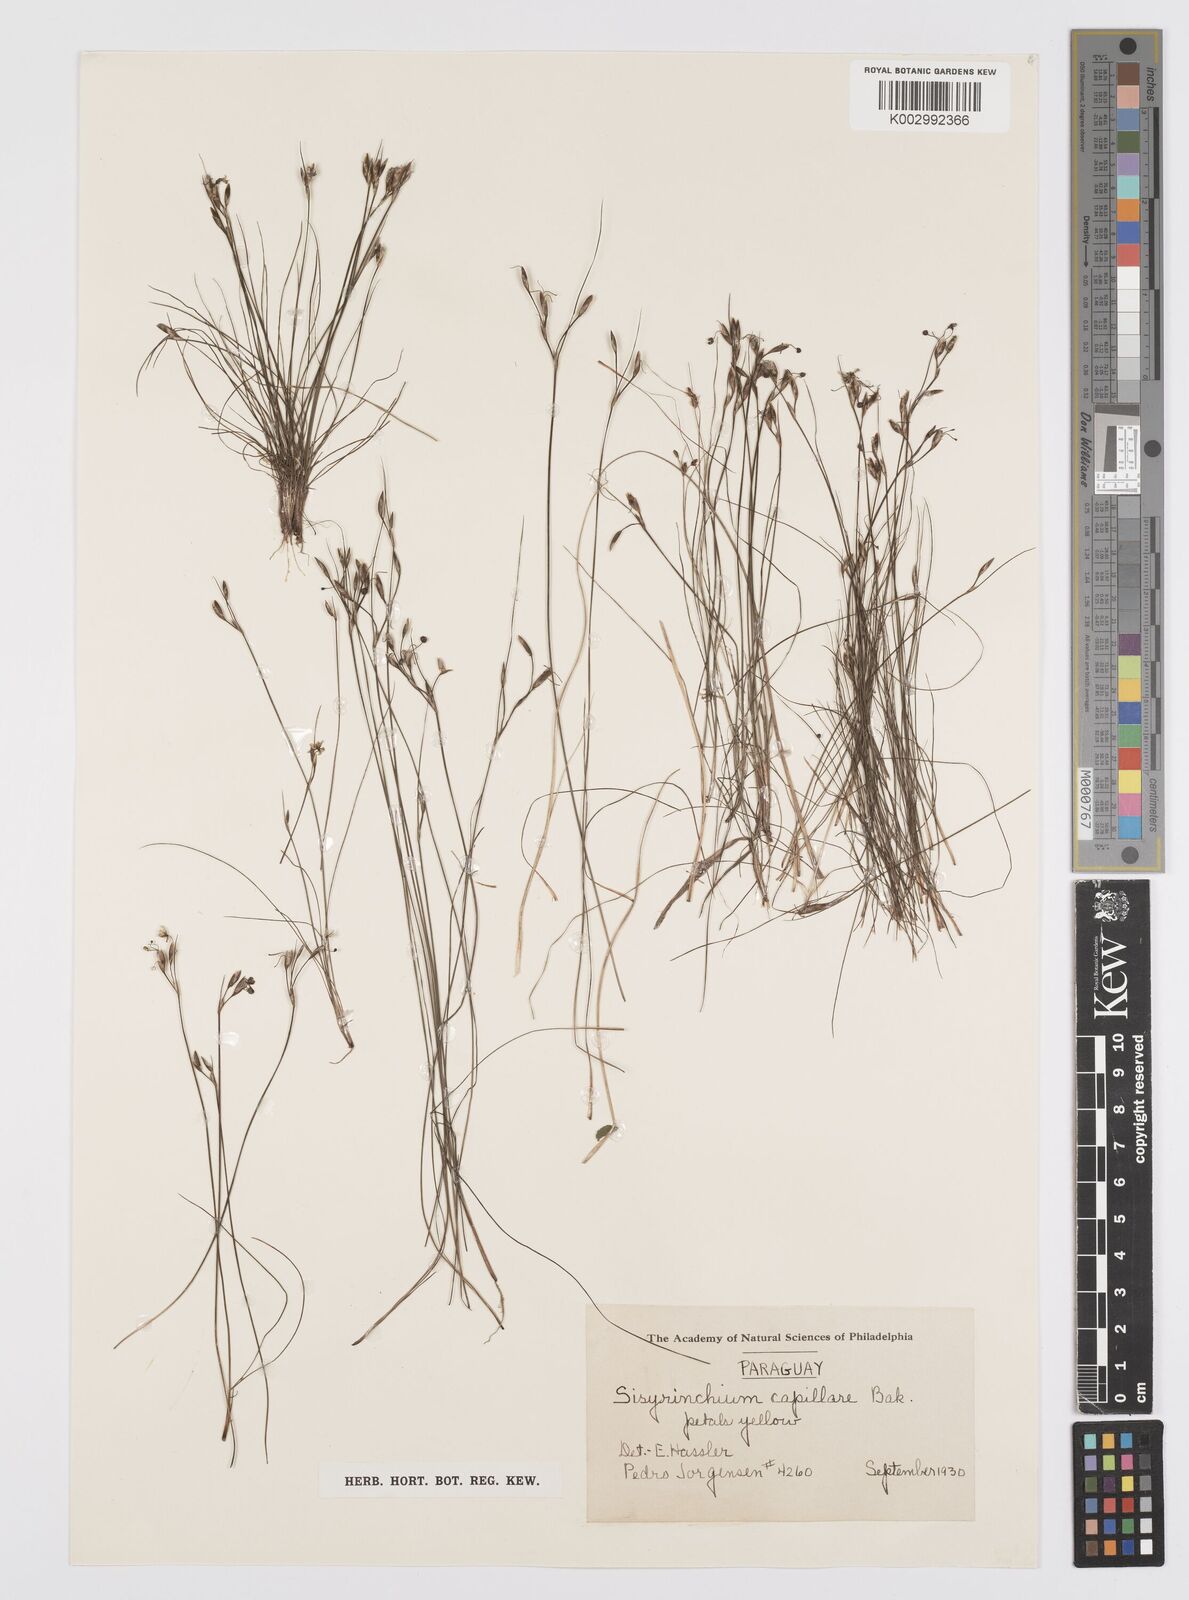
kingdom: Plantae
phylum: Tracheophyta
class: Liliopsida
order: Asparagales
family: Iridaceae
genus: Sisyrinchium
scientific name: Sisyrinchium commutatum
